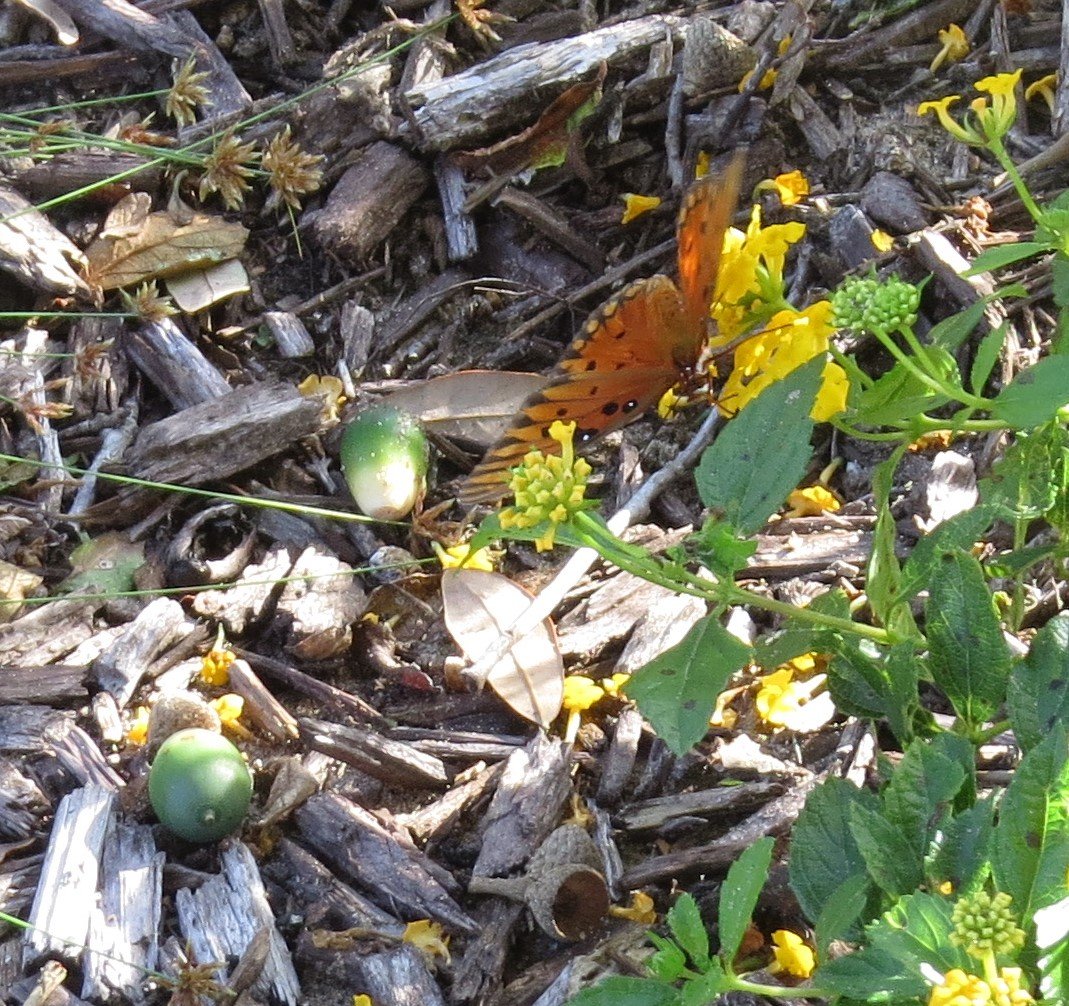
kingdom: Animalia
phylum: Arthropoda
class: Insecta
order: Lepidoptera
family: Nymphalidae
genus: Dione
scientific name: Dione vanillae
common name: Gulf Fritillary
